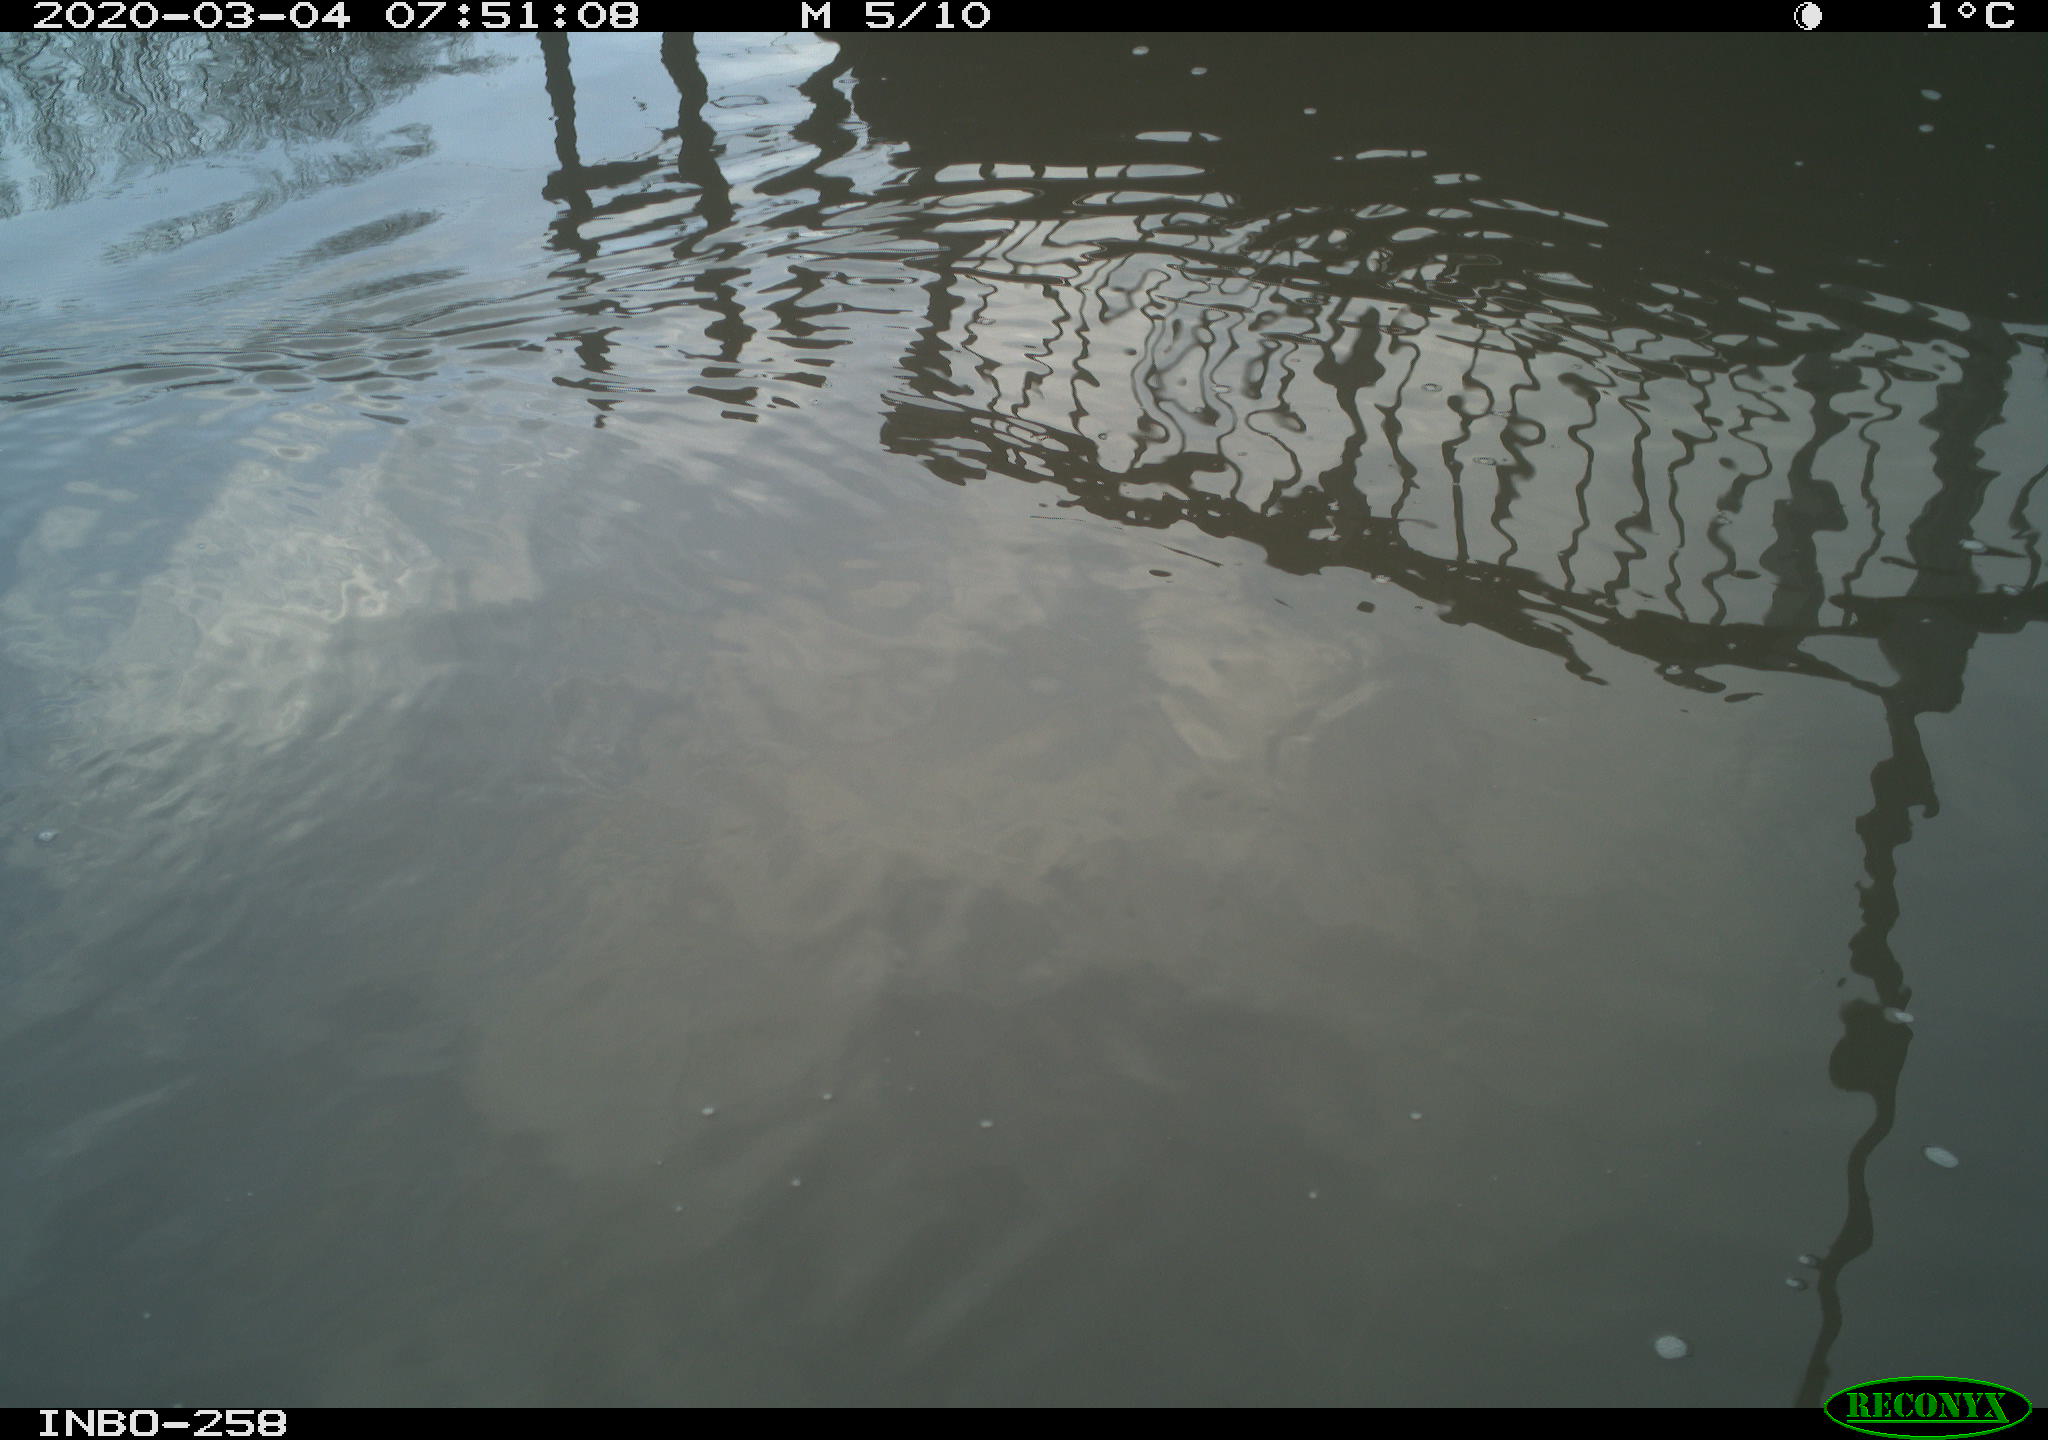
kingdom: Animalia
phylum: Chordata
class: Aves
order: Gruiformes
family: Rallidae
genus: Gallinula
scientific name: Gallinula chloropus
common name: Common moorhen
